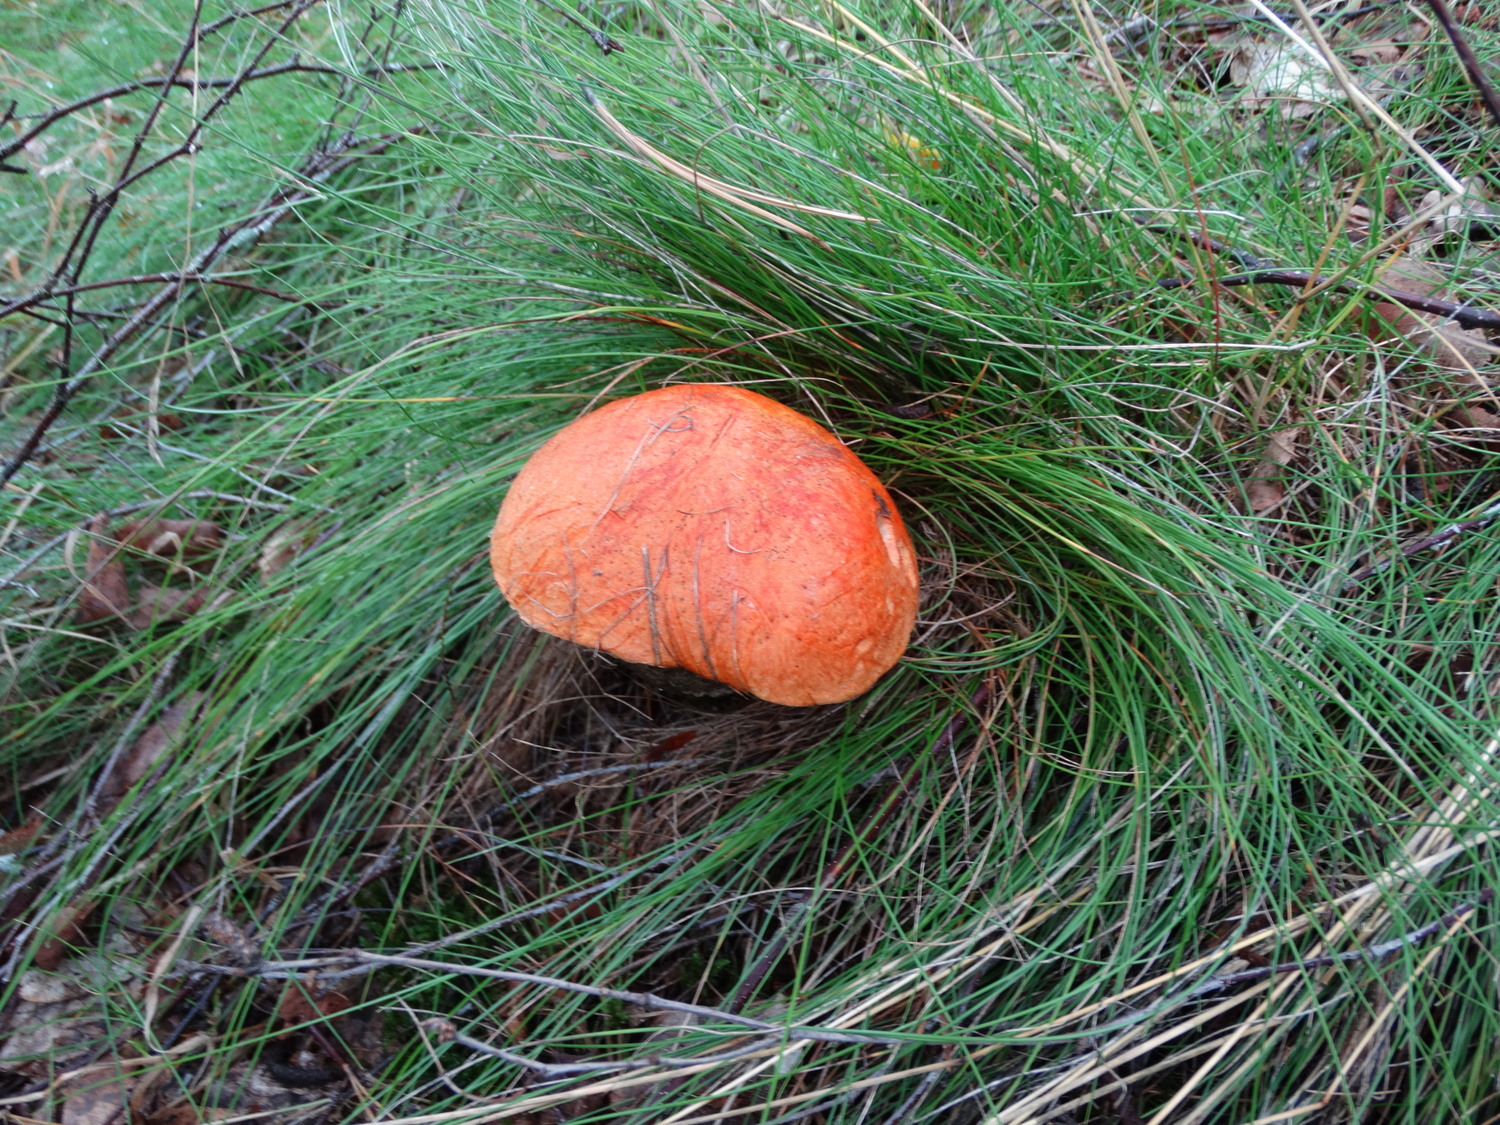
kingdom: Fungi
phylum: Basidiomycota
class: Agaricomycetes
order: Boletales
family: Boletaceae
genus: Leccinum
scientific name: Leccinum versipelle
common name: orange skælrørhat
